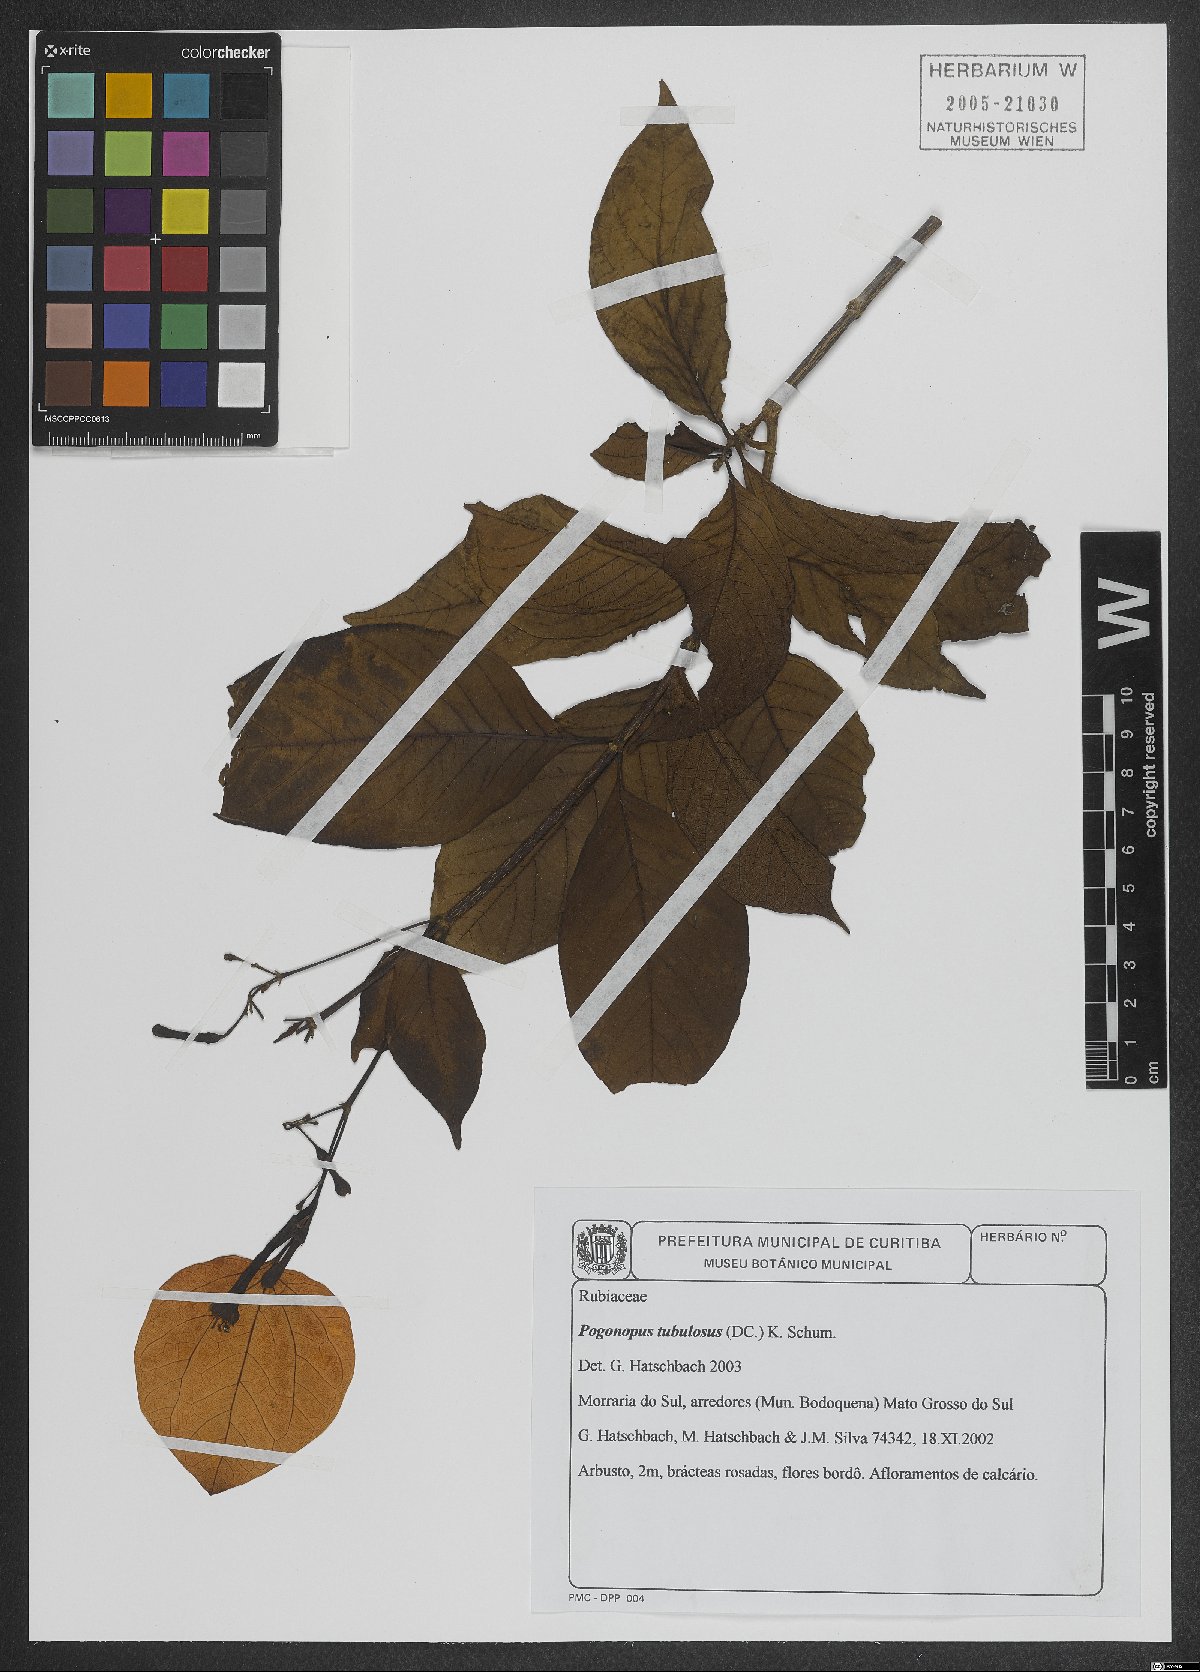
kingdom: Plantae
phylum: Tracheophyta
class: Magnoliopsida
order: Gentianales
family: Rubiaceae
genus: Pogonopus
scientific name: Pogonopus tubulosus
